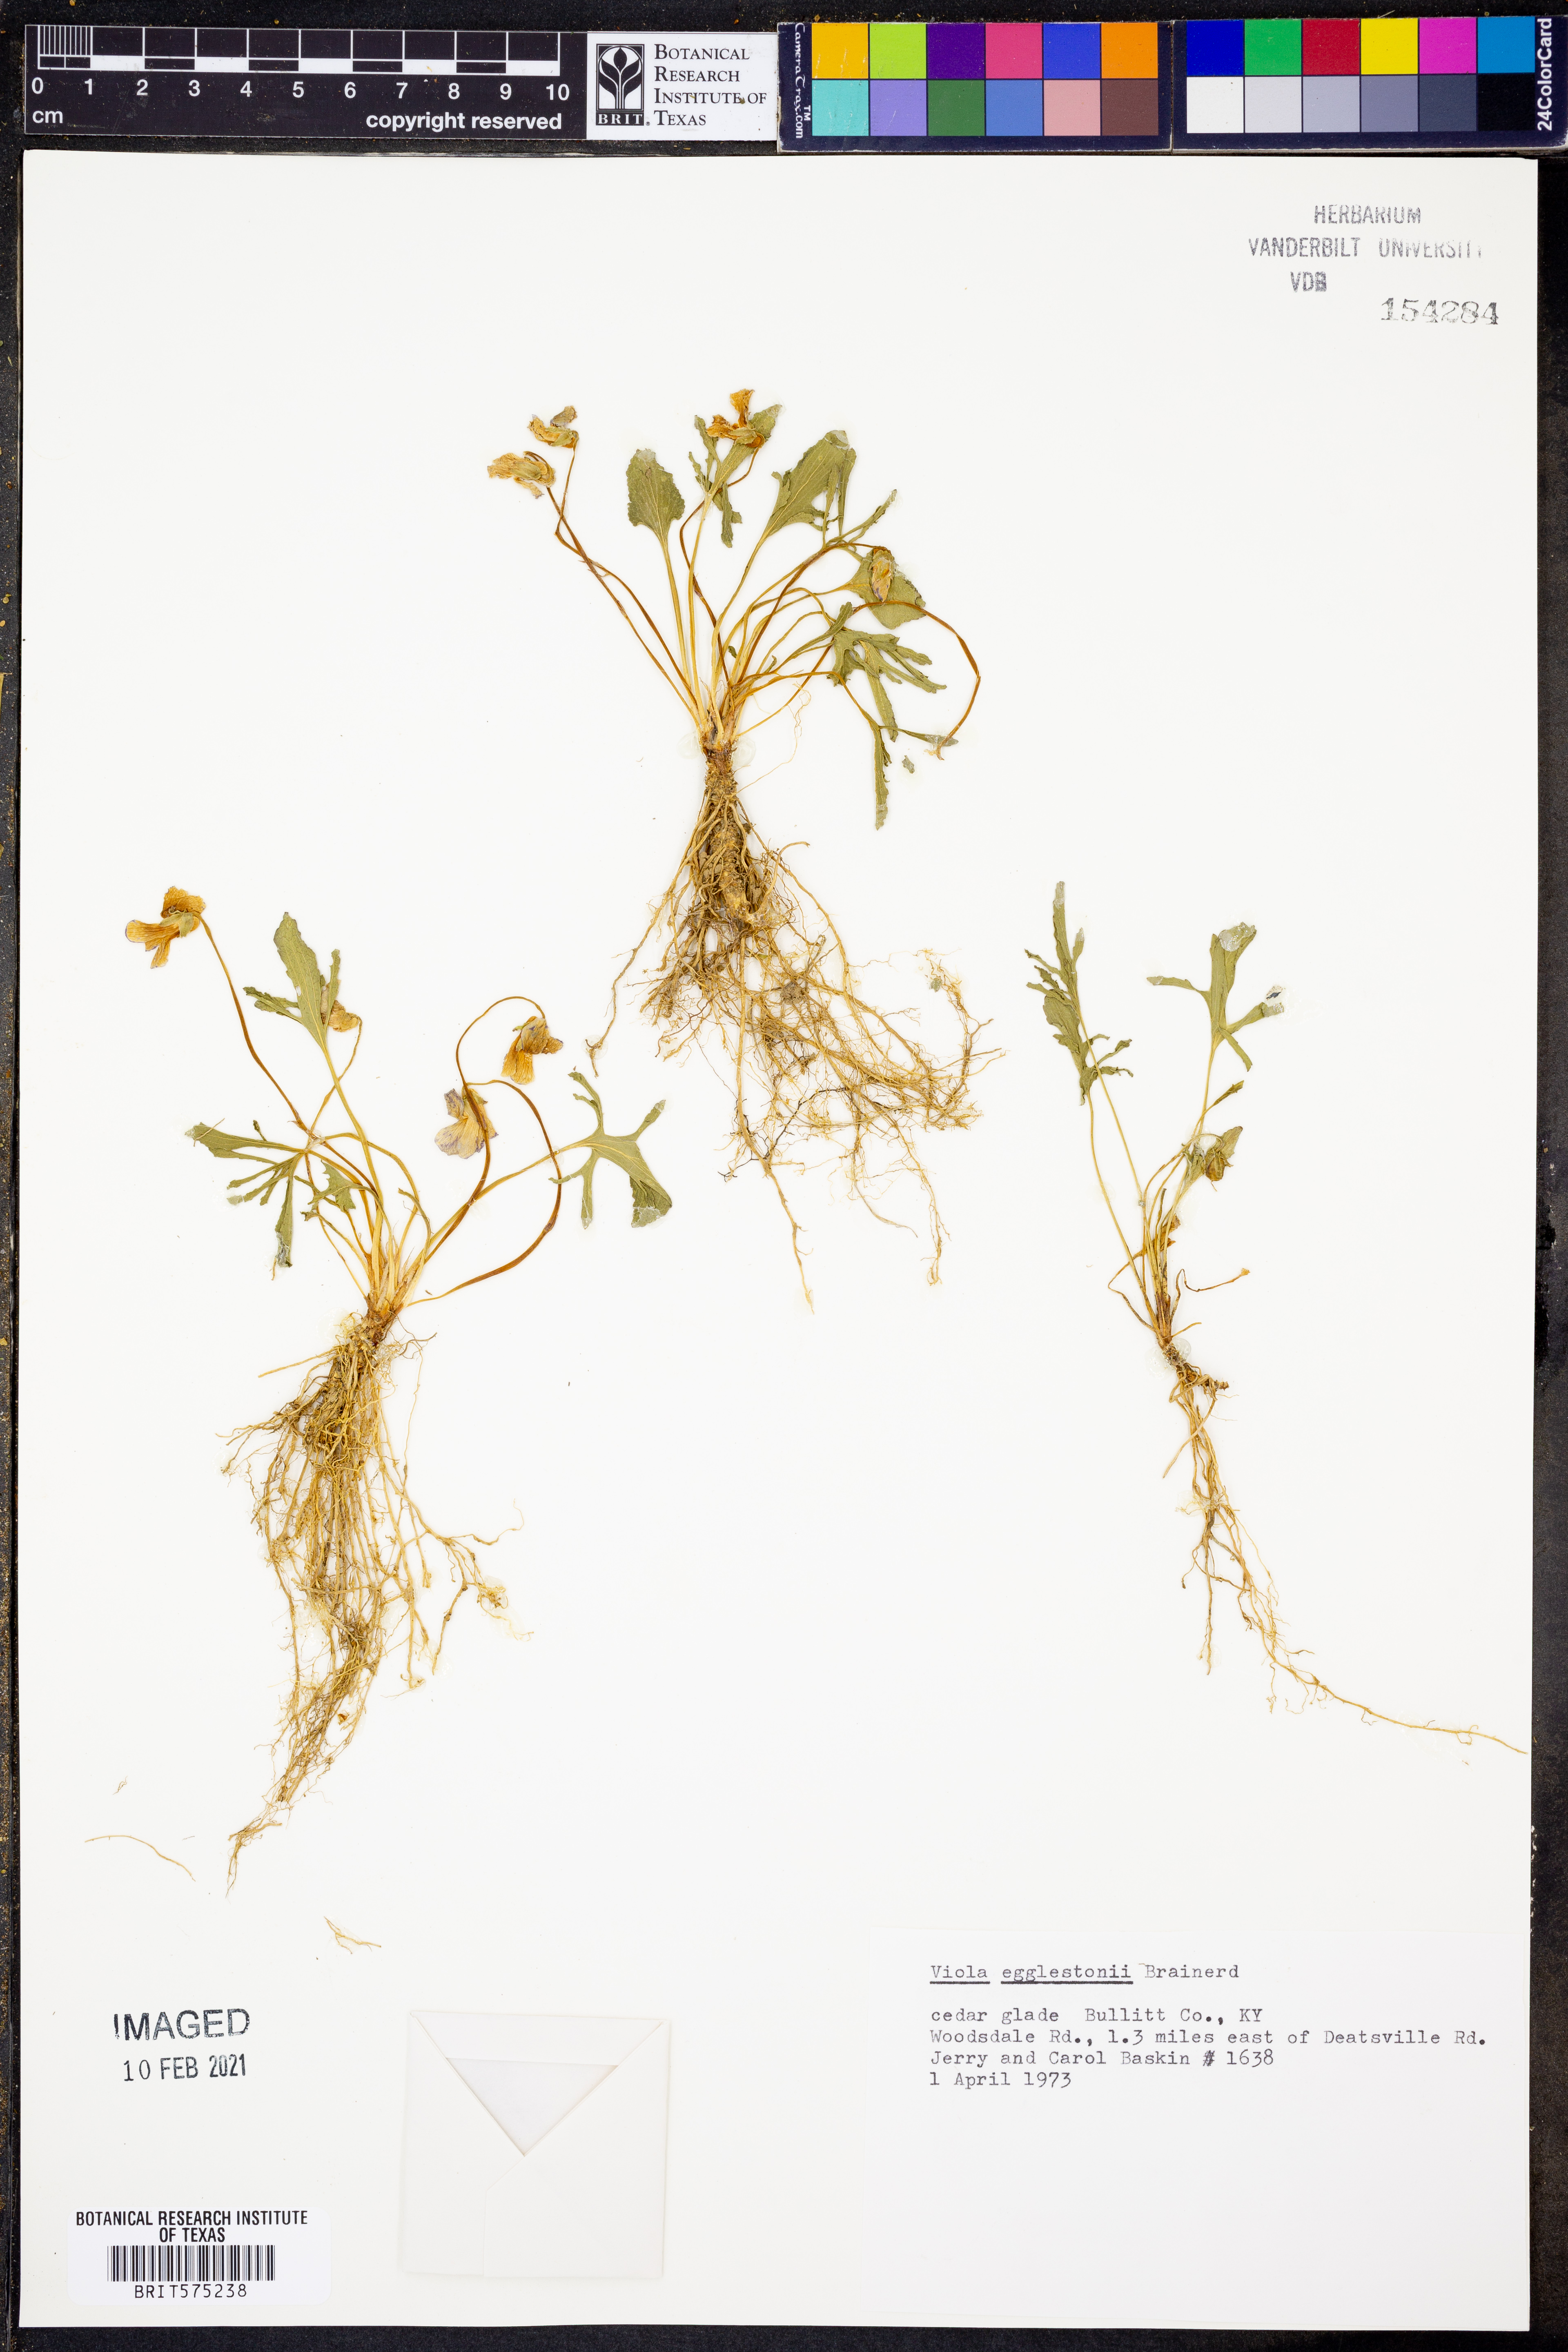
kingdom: Plantae
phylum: Tracheophyta
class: Magnoliopsida
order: Malpighiales
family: Violaceae
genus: Viola
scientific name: Viola egglestonii
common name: Glade violet
